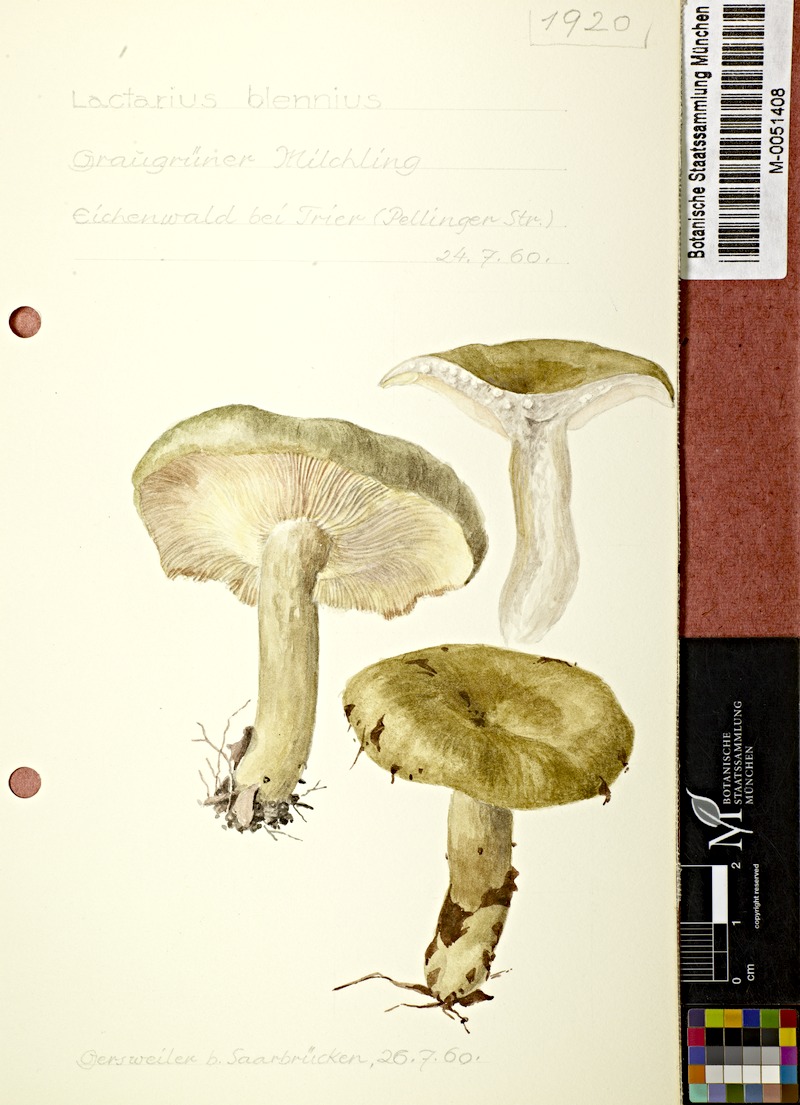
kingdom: Fungi
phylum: Basidiomycota
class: Agaricomycetes
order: Russulales
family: Russulaceae
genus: Lactarius
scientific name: Lactarius blennius
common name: Beech milkcap
